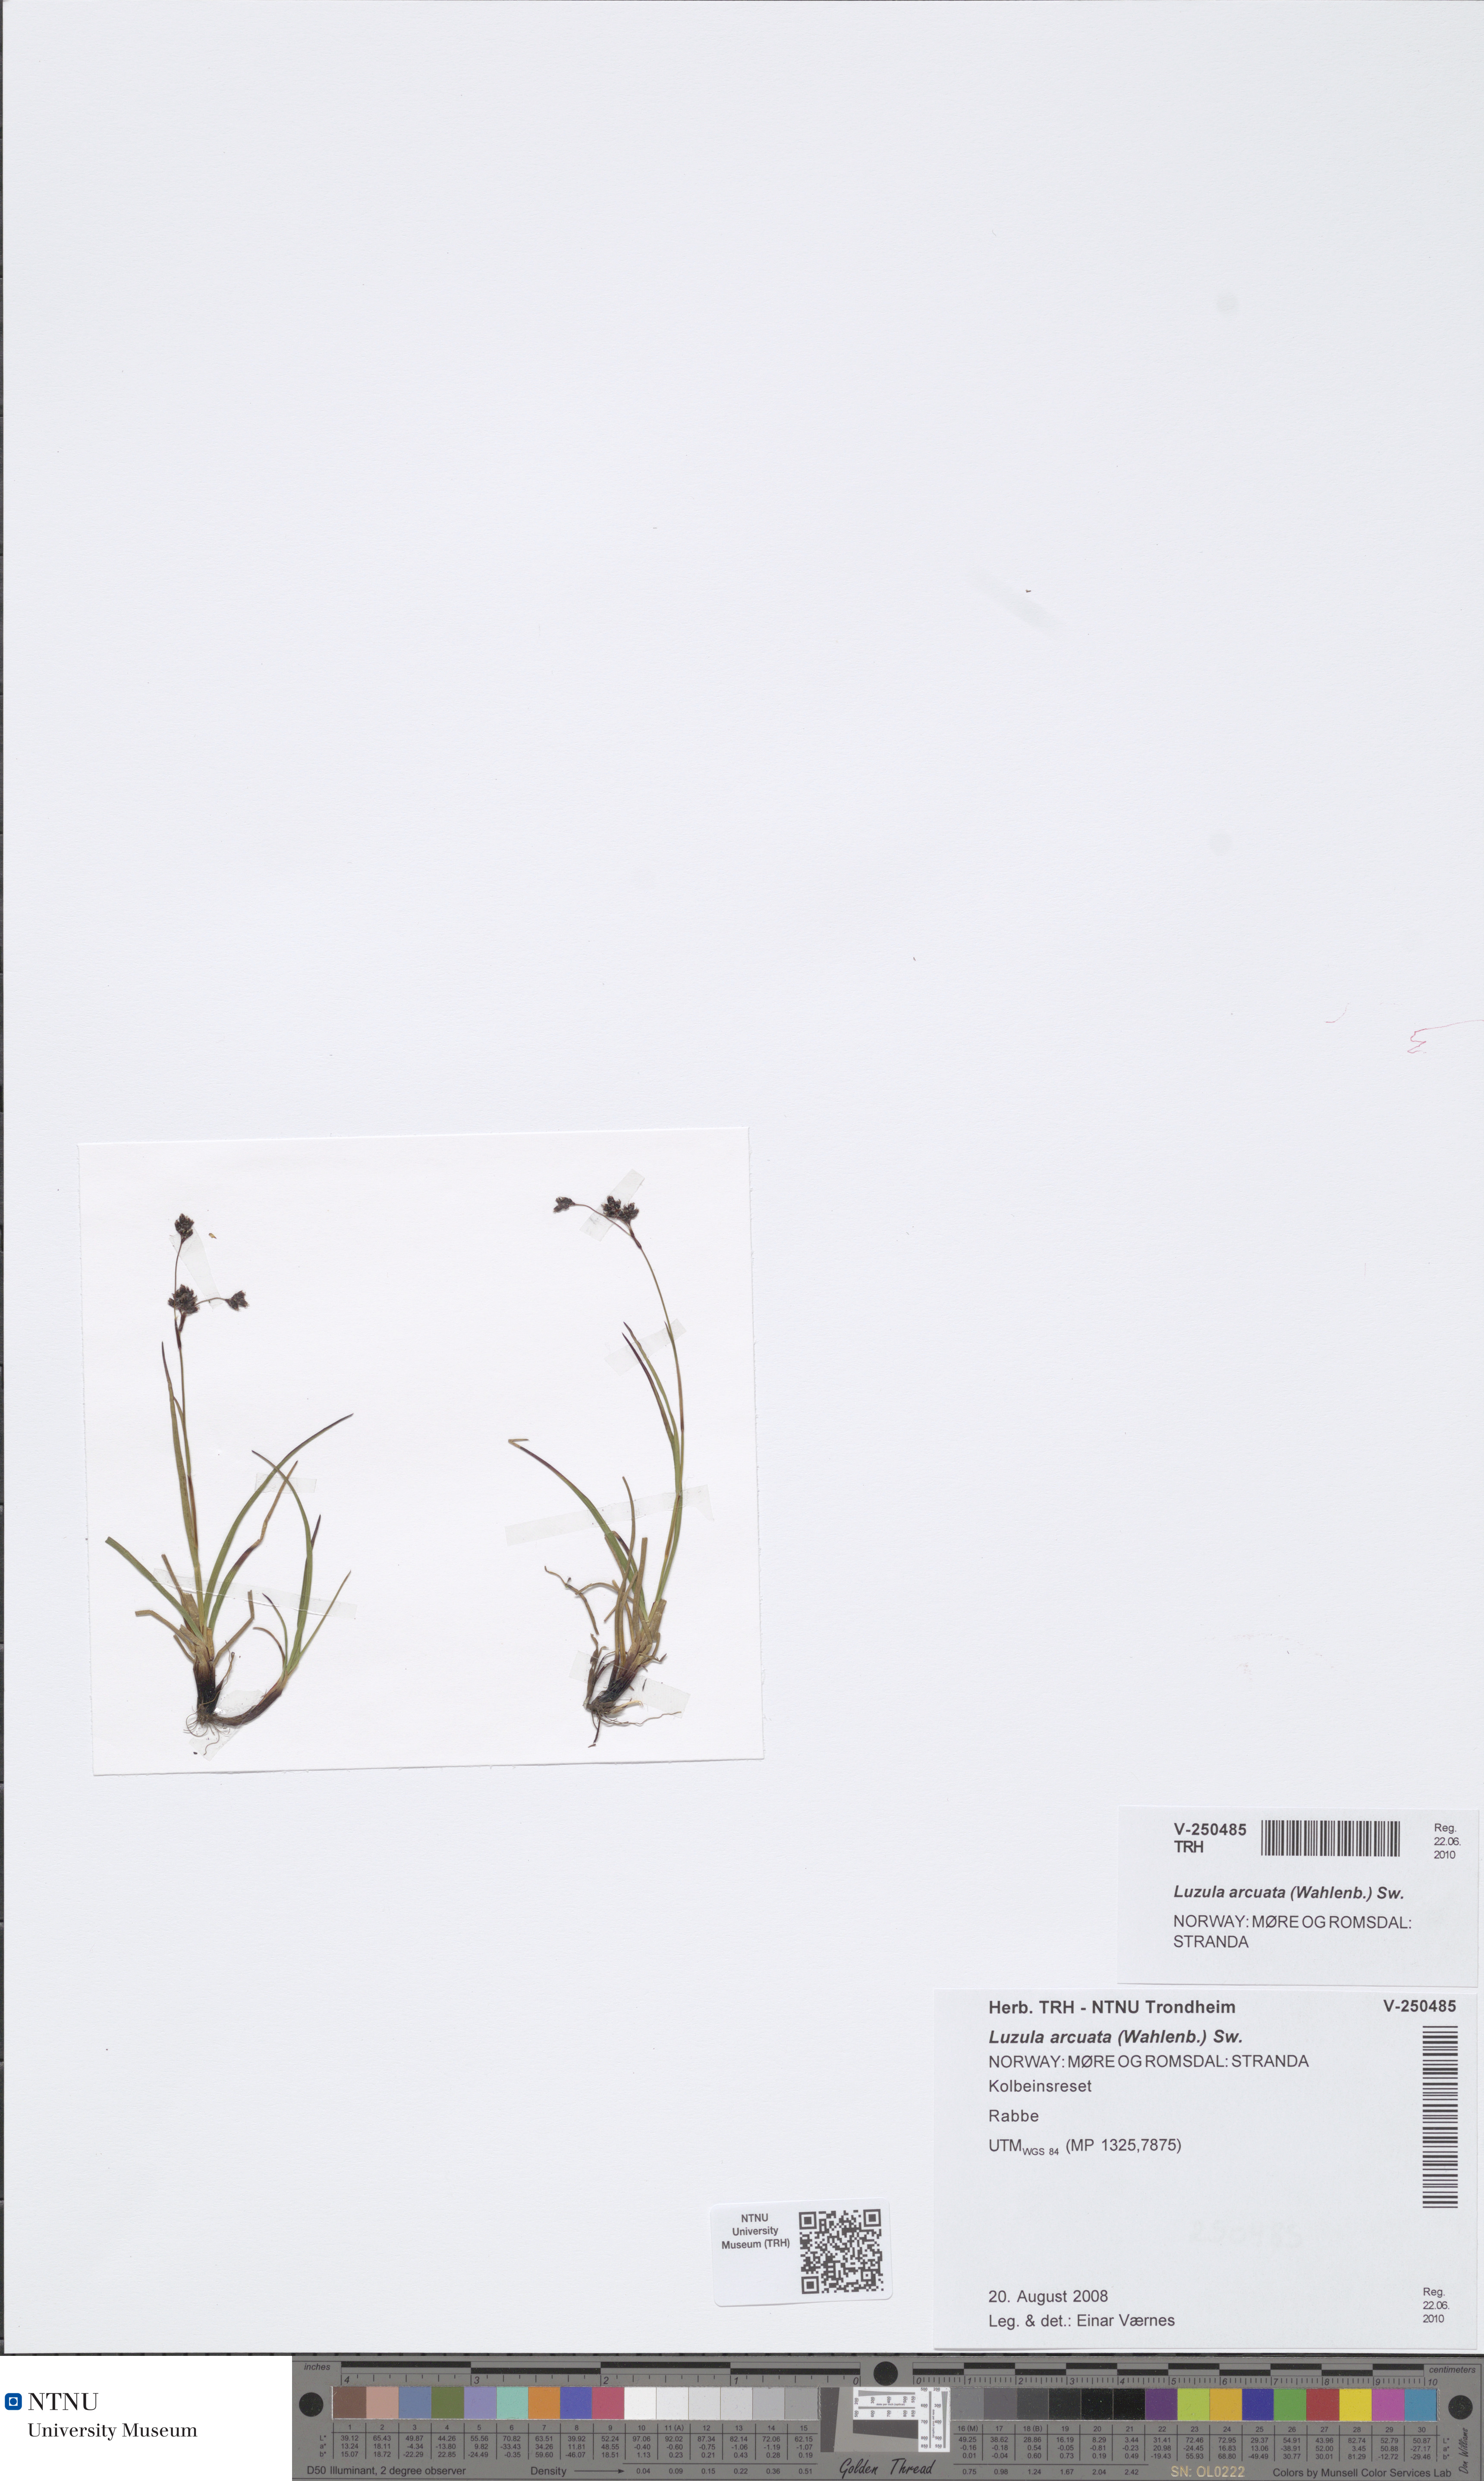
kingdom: Plantae
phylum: Tracheophyta
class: Liliopsida
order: Poales
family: Juncaceae
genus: Luzula
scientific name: Luzula arcuata
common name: Curved wood-rush
